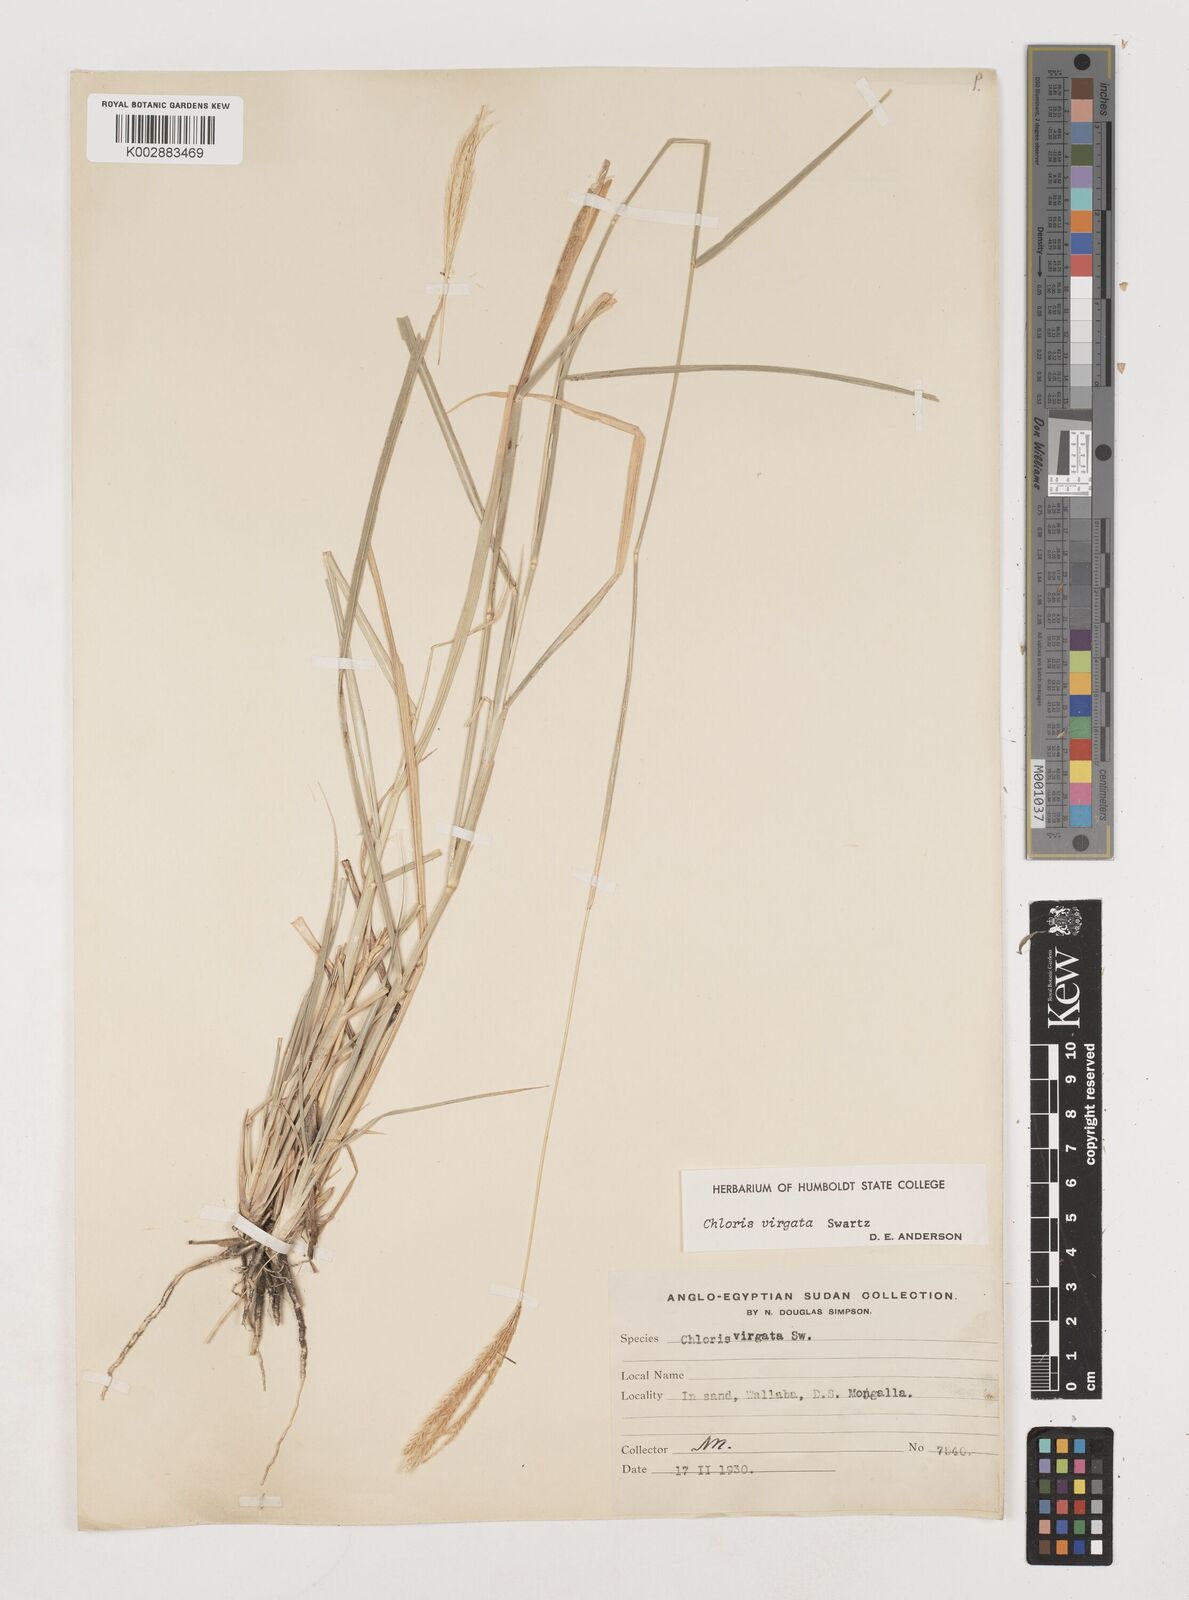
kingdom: Plantae
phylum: Tracheophyta
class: Liliopsida
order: Poales
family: Poaceae
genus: Chloris
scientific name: Chloris virgata
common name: Feathery rhodes-grass
